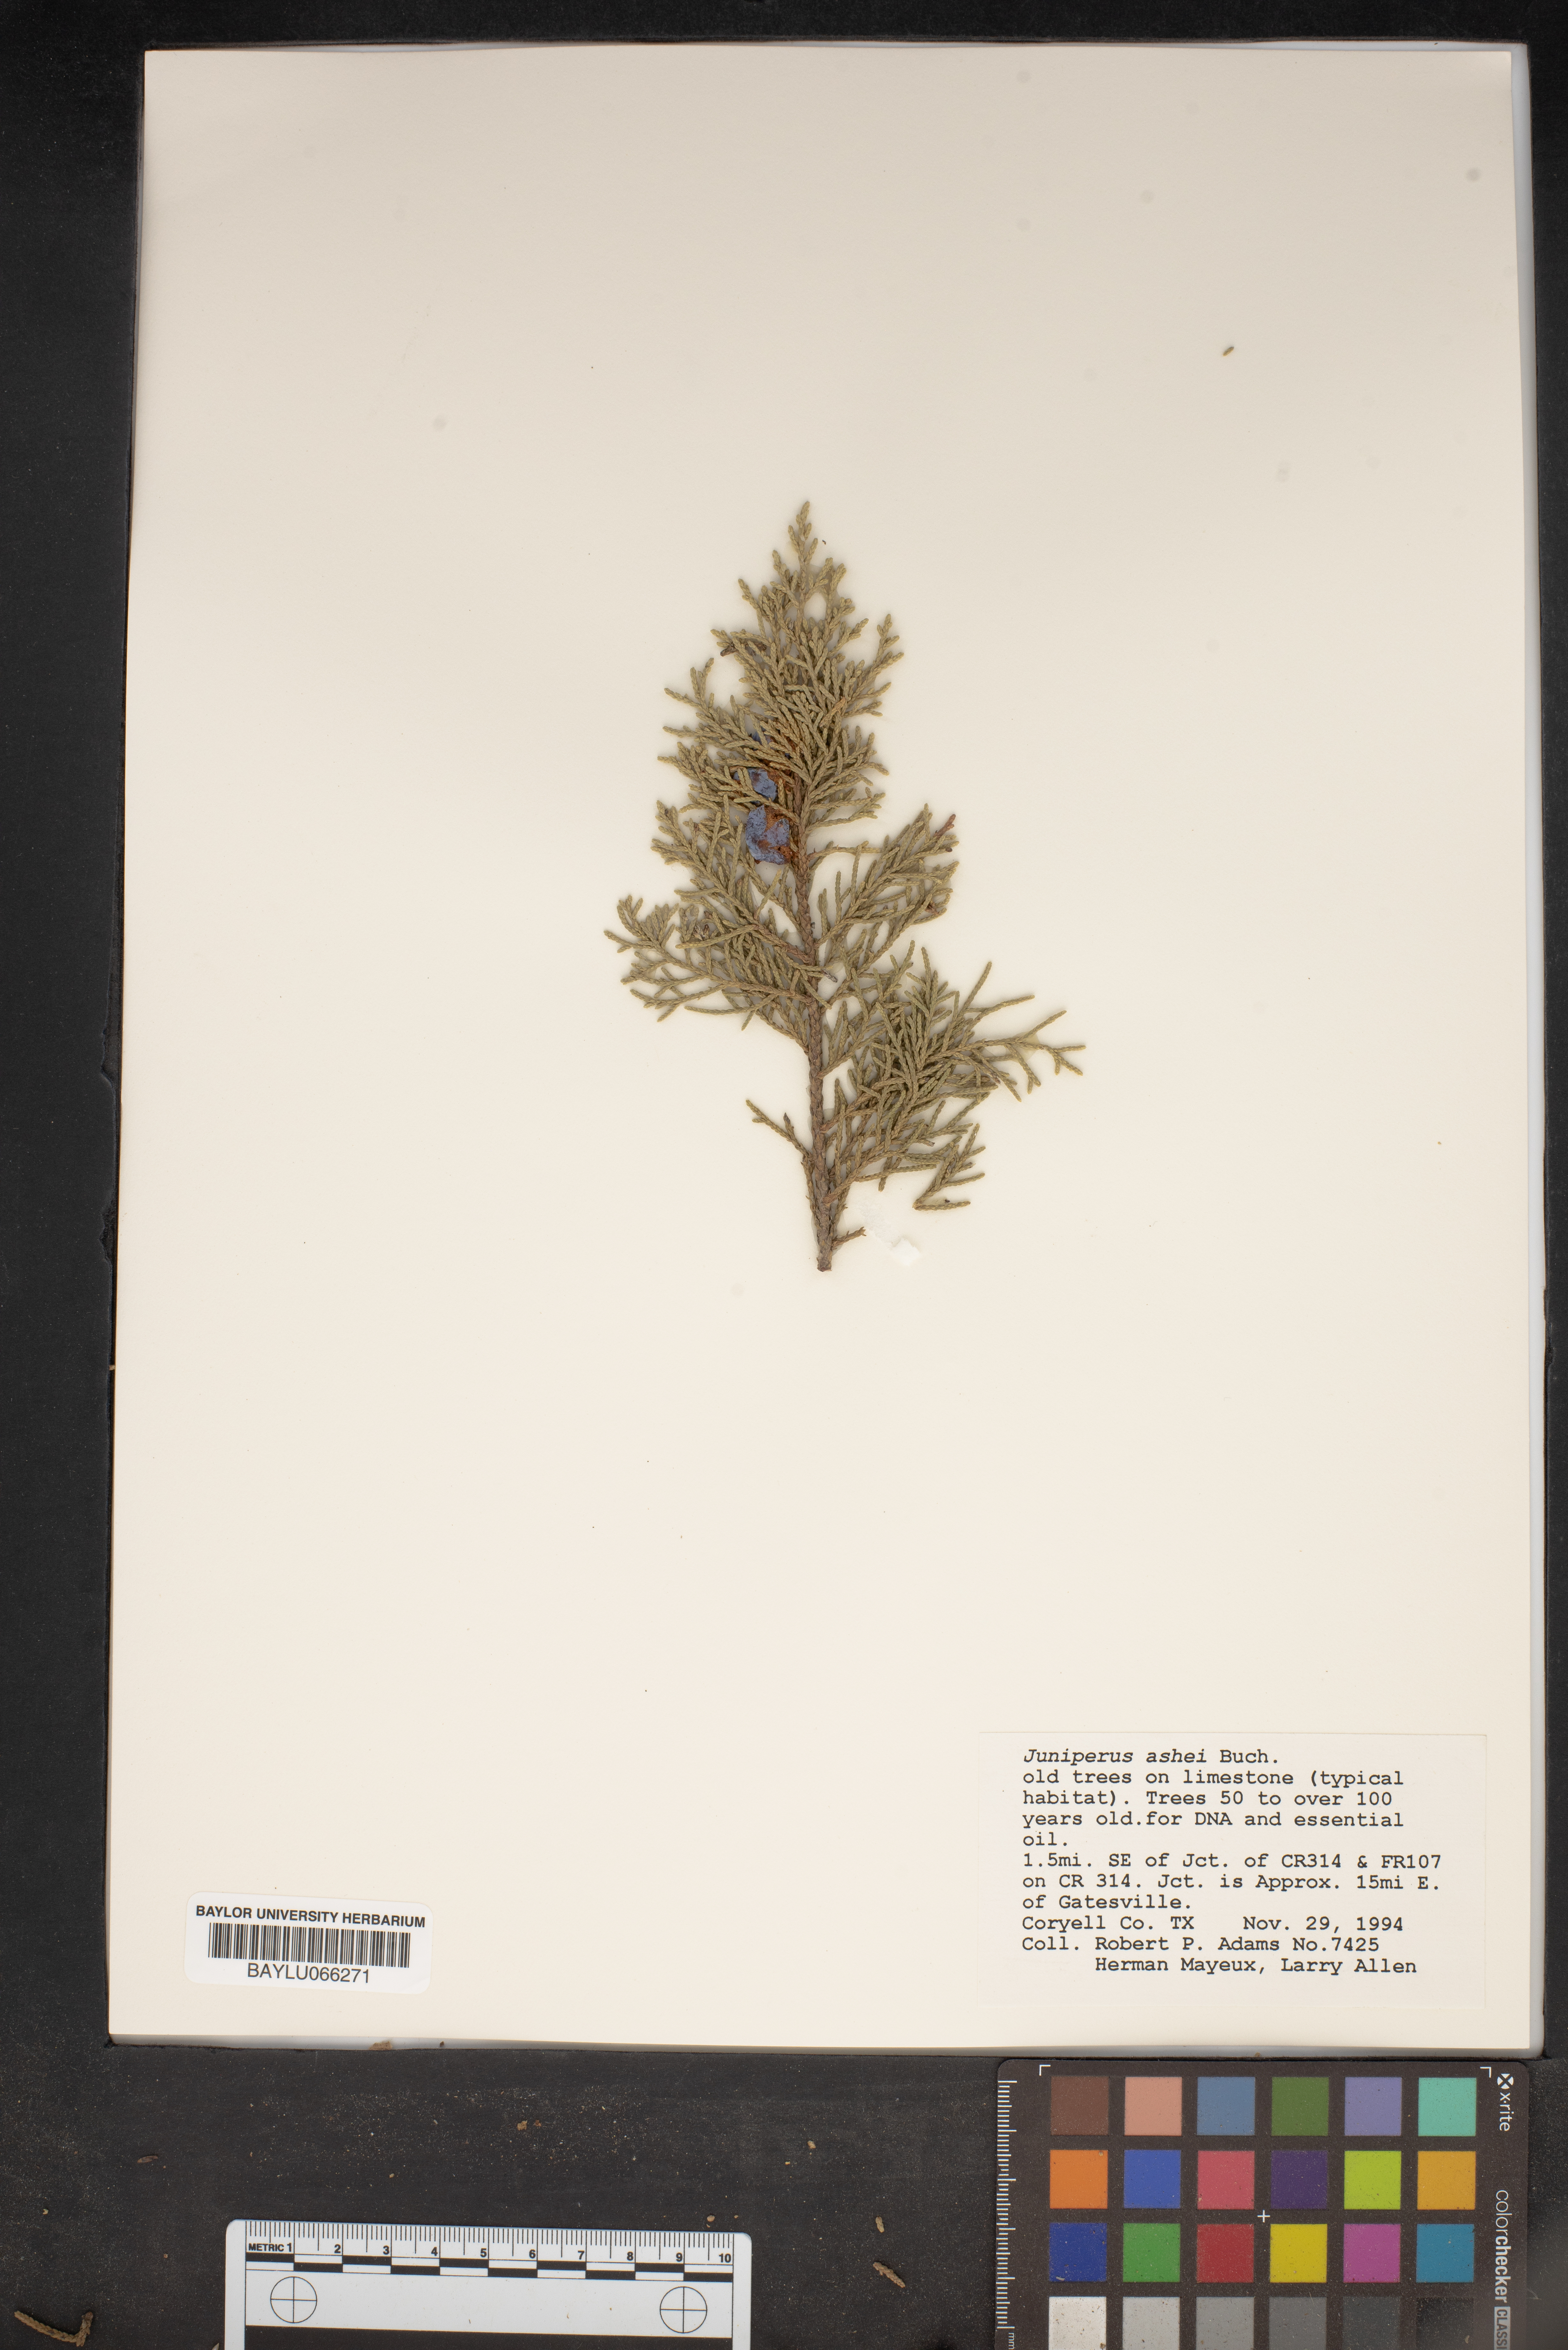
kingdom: Plantae
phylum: Tracheophyta
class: Pinopsida
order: Pinales
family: Cupressaceae
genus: Juniperus
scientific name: Juniperus ashei
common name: Mexican juniper
